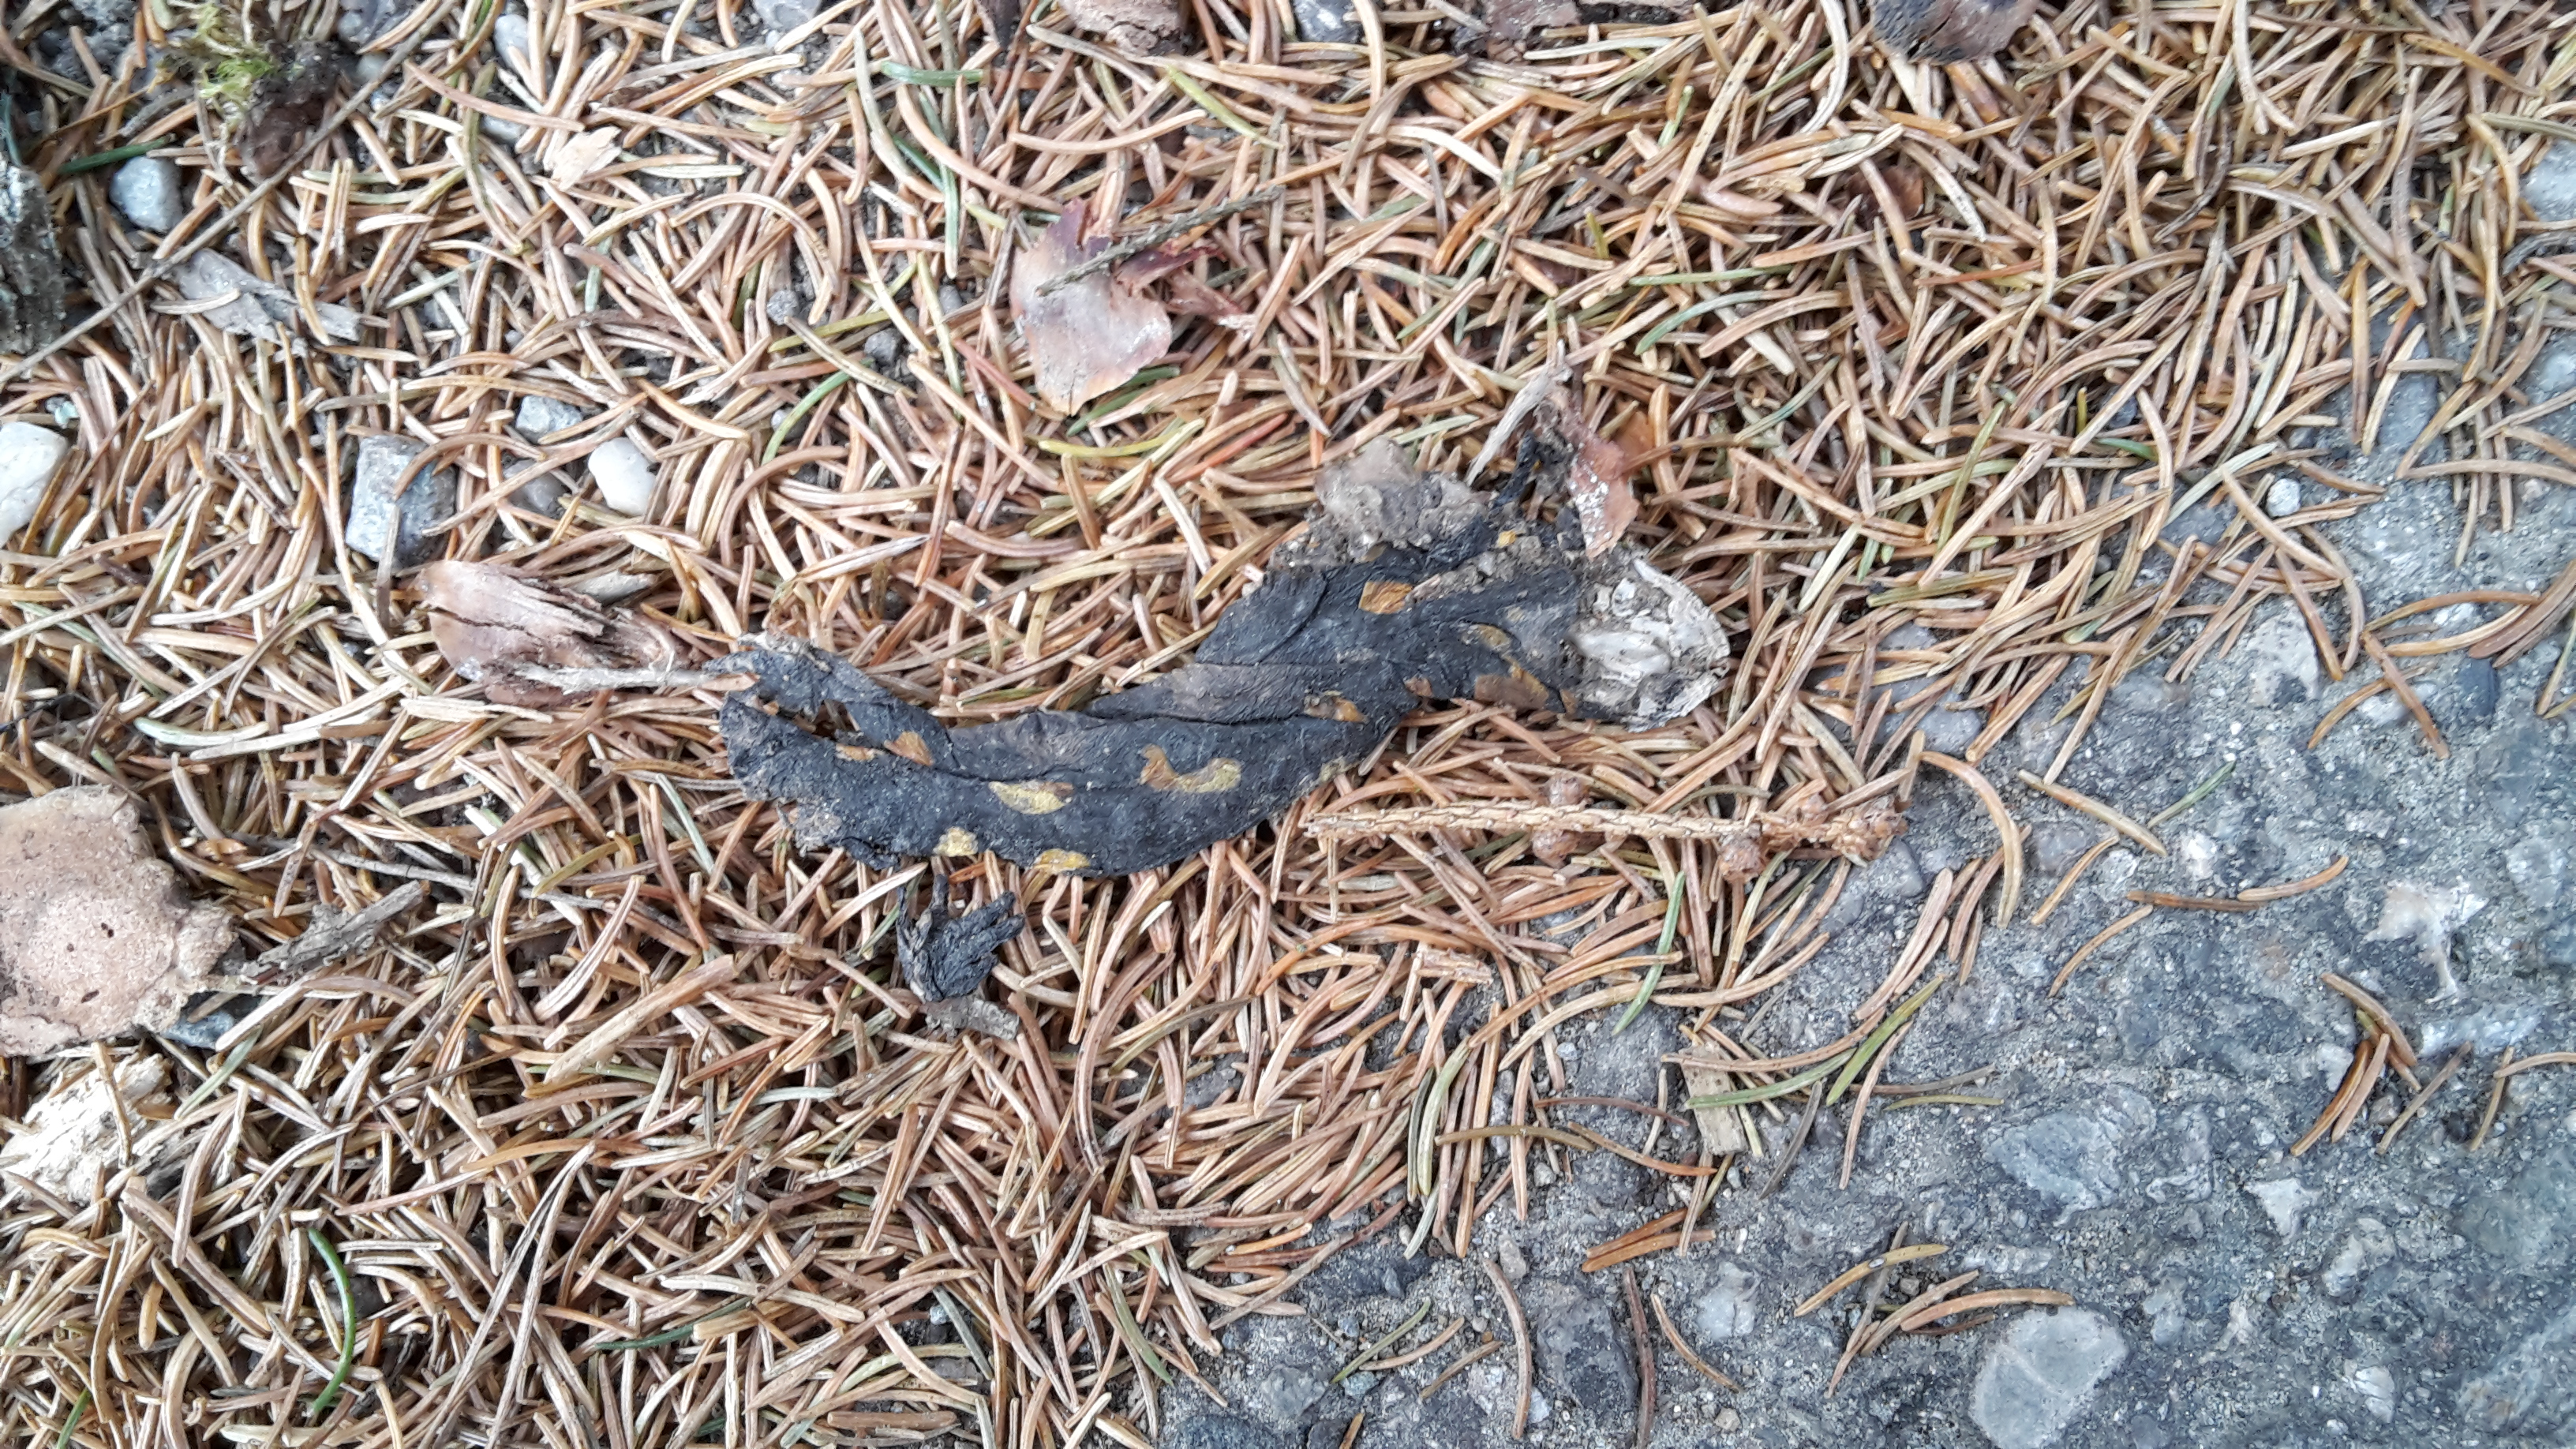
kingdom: Animalia
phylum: Chordata
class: Amphibia
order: Caudata
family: Salamandridae
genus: Salamandra
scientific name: Salamandra salamandra
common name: Fire salamander
